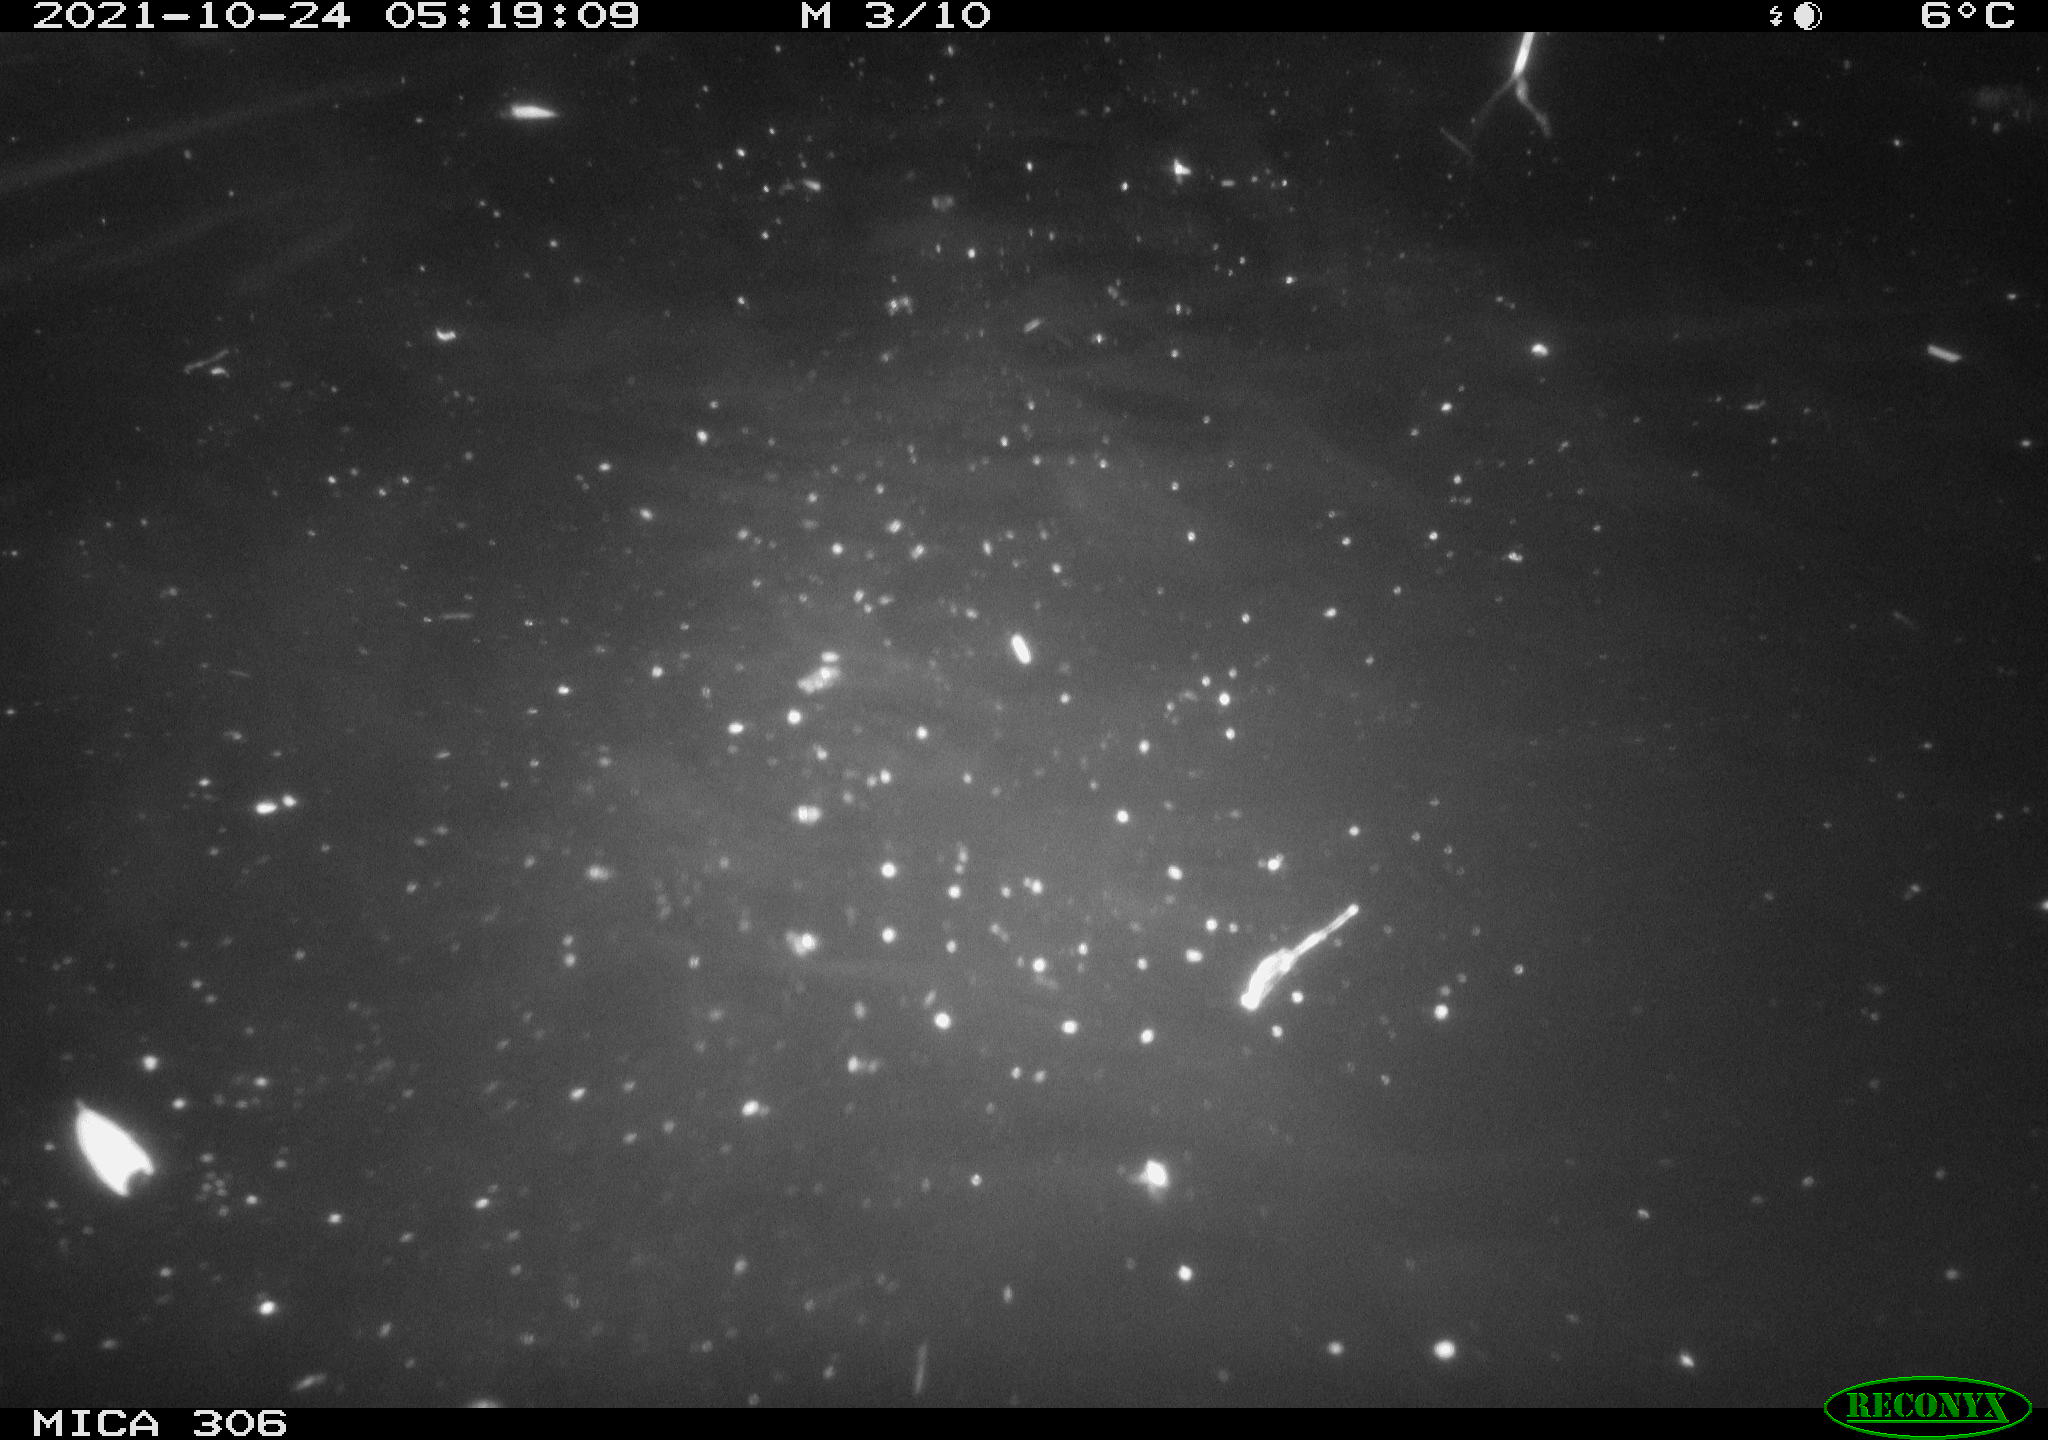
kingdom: Animalia
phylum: Chordata
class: Mammalia
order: Rodentia
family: Cricetidae
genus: Ondatra
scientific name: Ondatra zibethicus
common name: Muskrat
